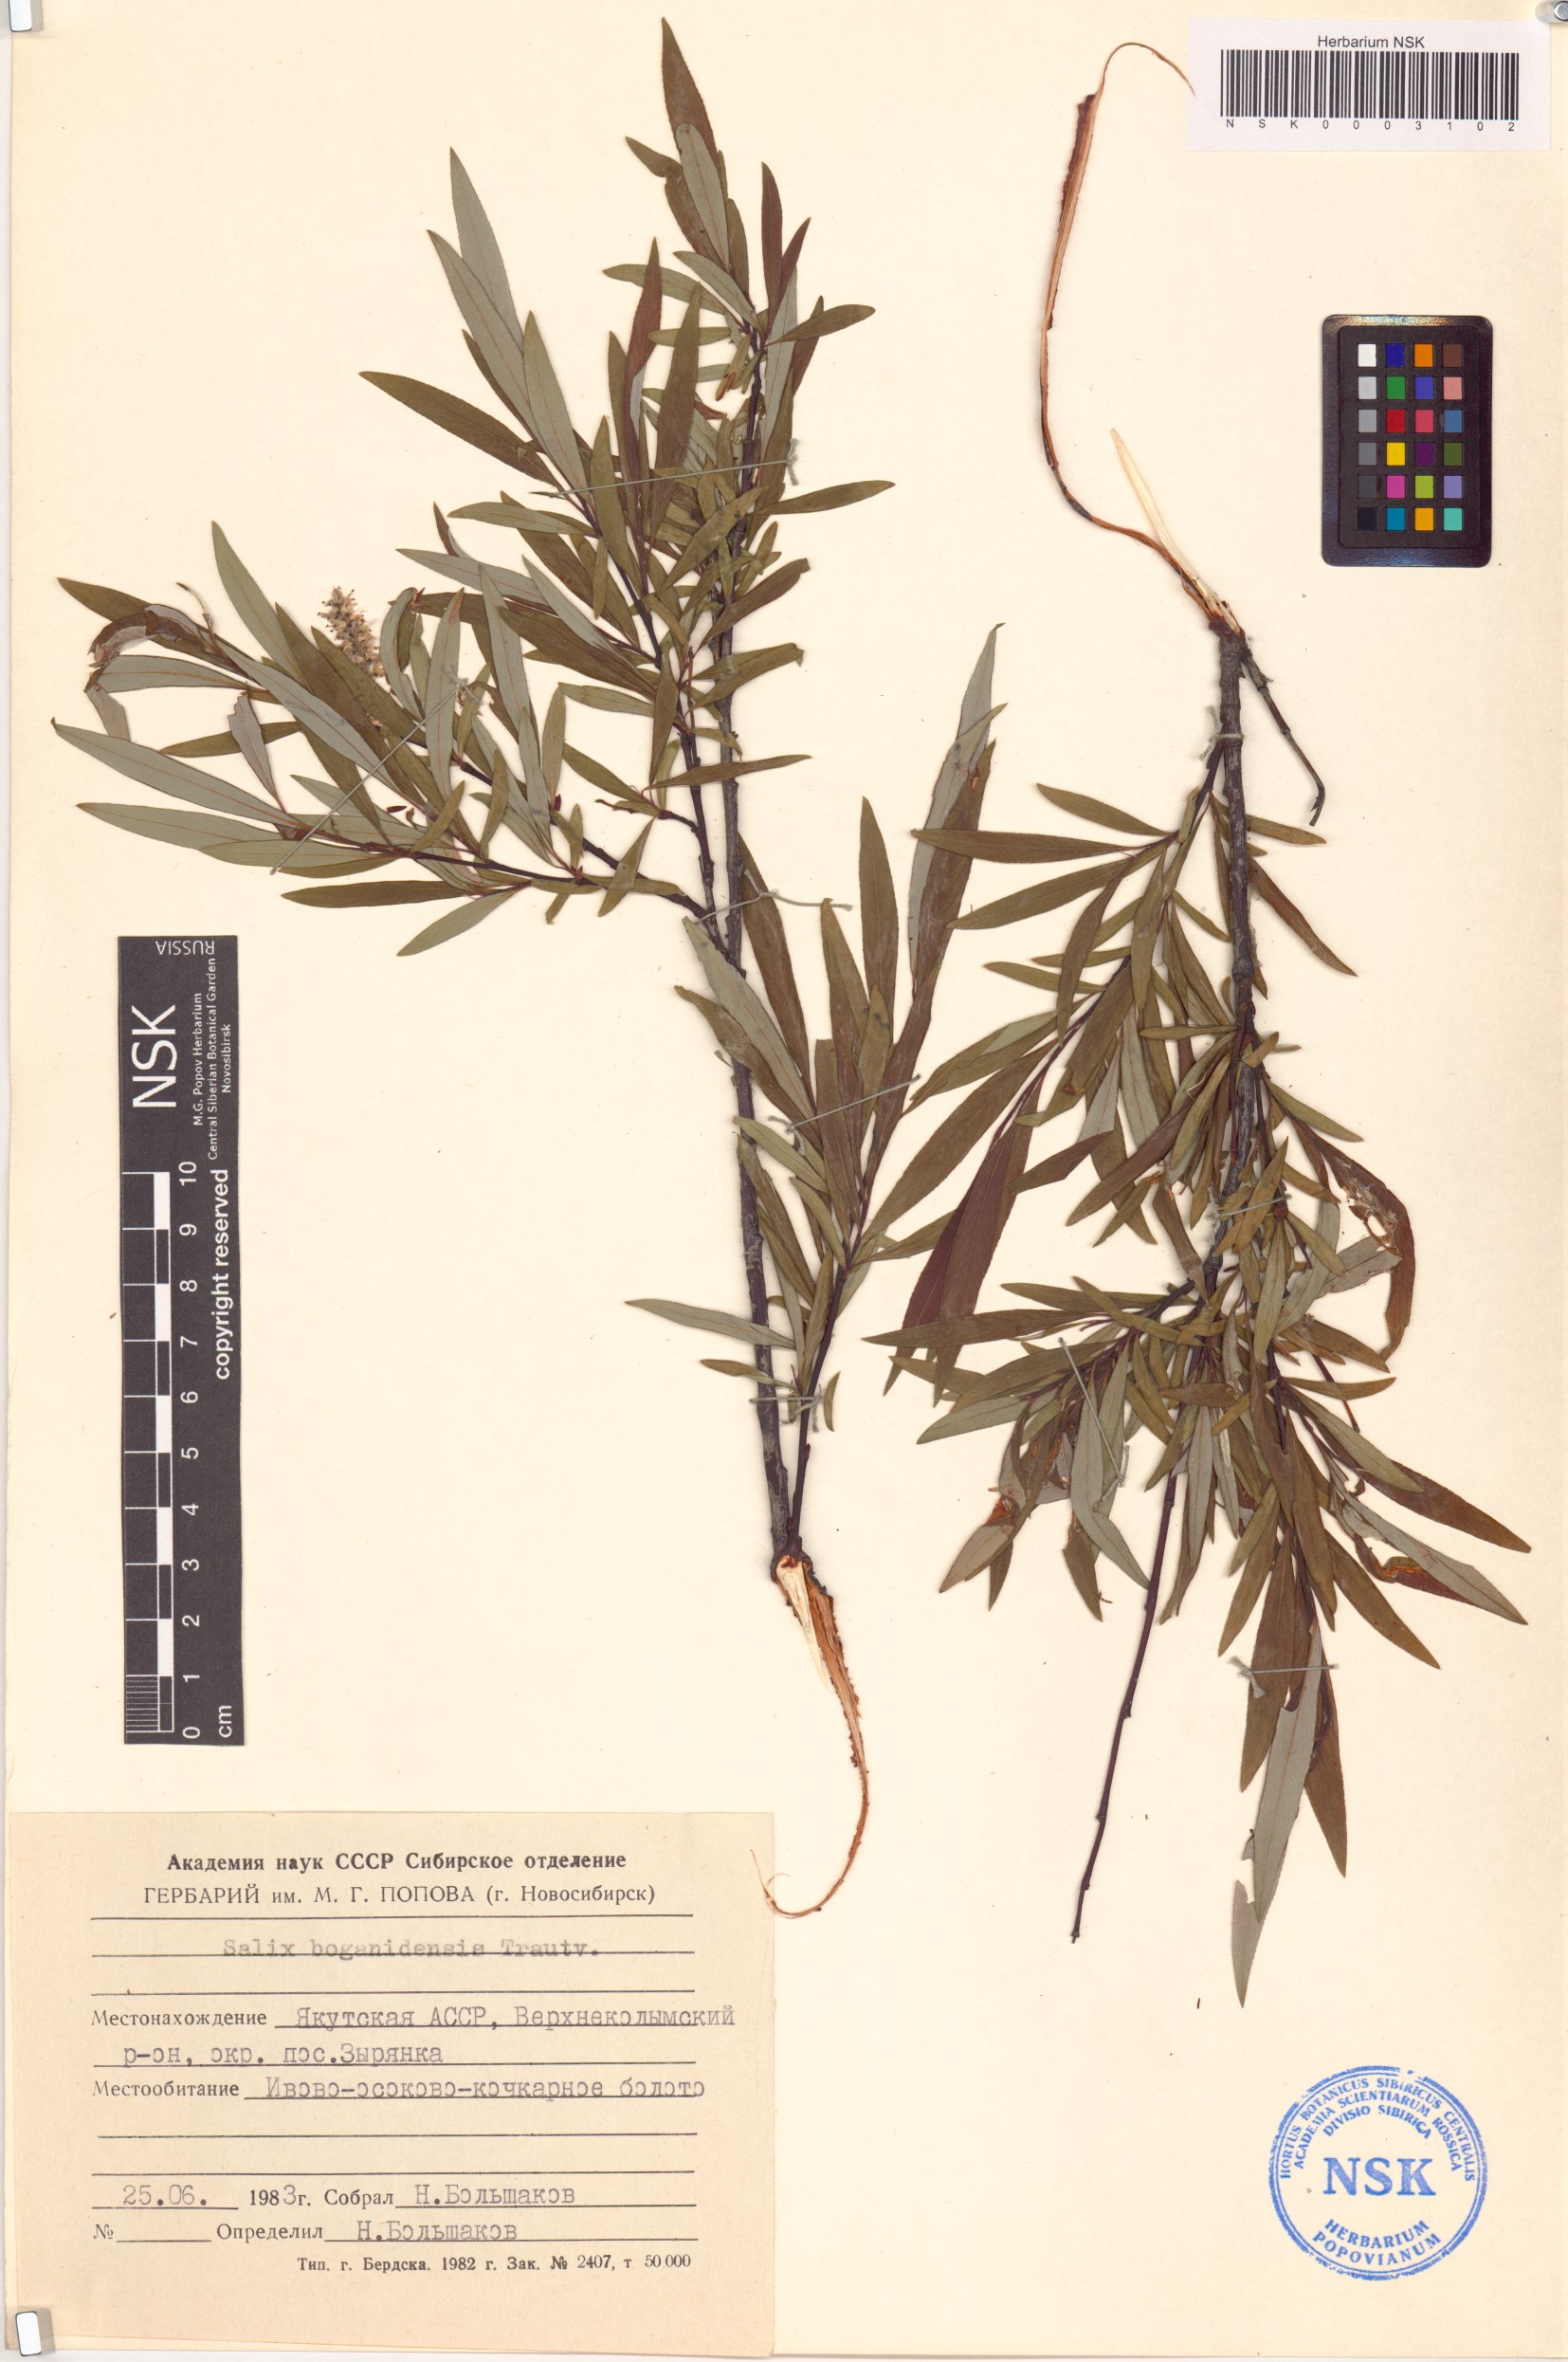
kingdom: Plantae
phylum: Tracheophyta
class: Magnoliopsida
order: Malpighiales
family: Salicaceae
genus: Salix
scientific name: Salix boganidensis
